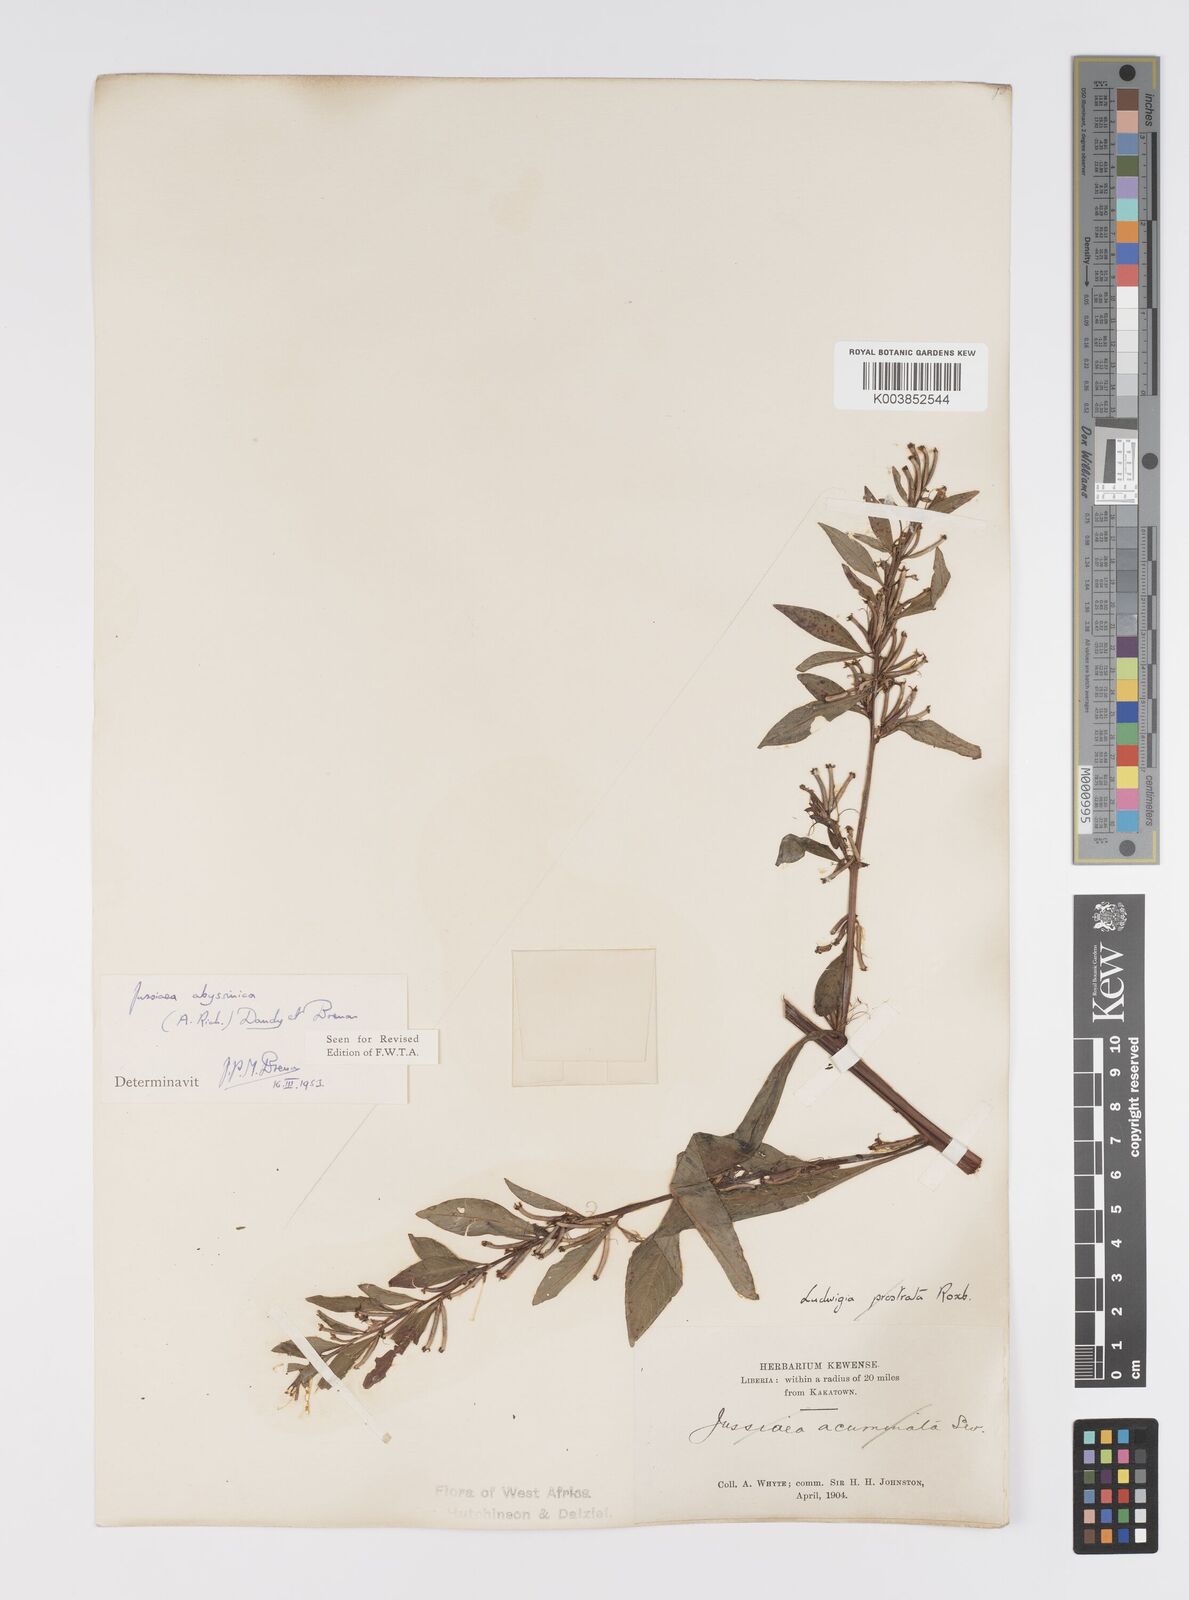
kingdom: Plantae
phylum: Tracheophyta
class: Magnoliopsida
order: Myrtales
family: Onagraceae
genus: Ludwigia
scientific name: Ludwigia abyssinica
